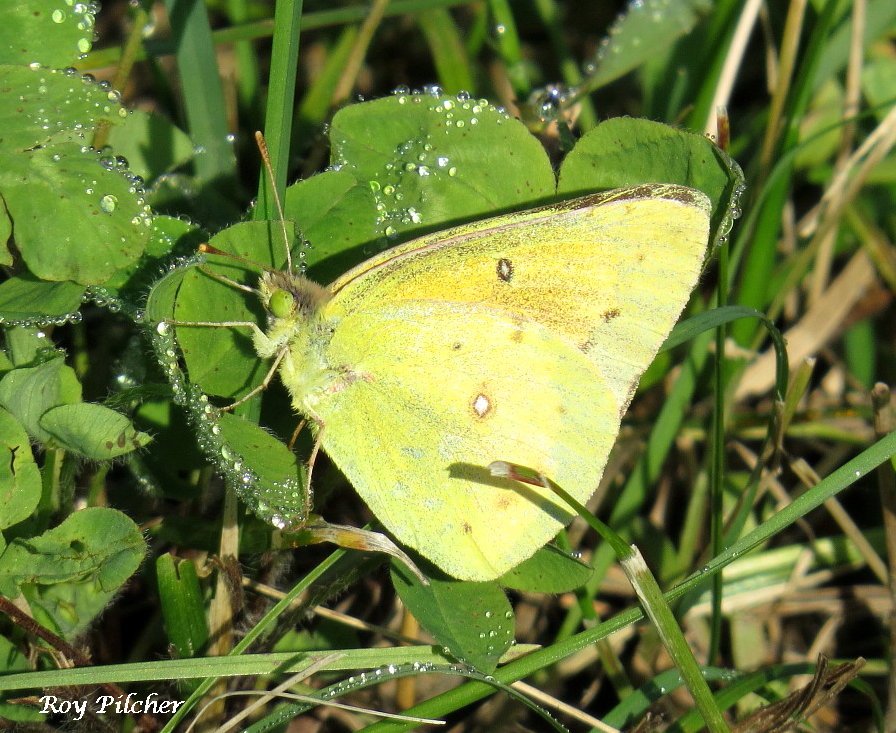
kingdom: Animalia
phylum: Arthropoda
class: Insecta
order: Lepidoptera
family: Pieridae
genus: Colias
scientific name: Colias philodice
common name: Clouded Sulphur
